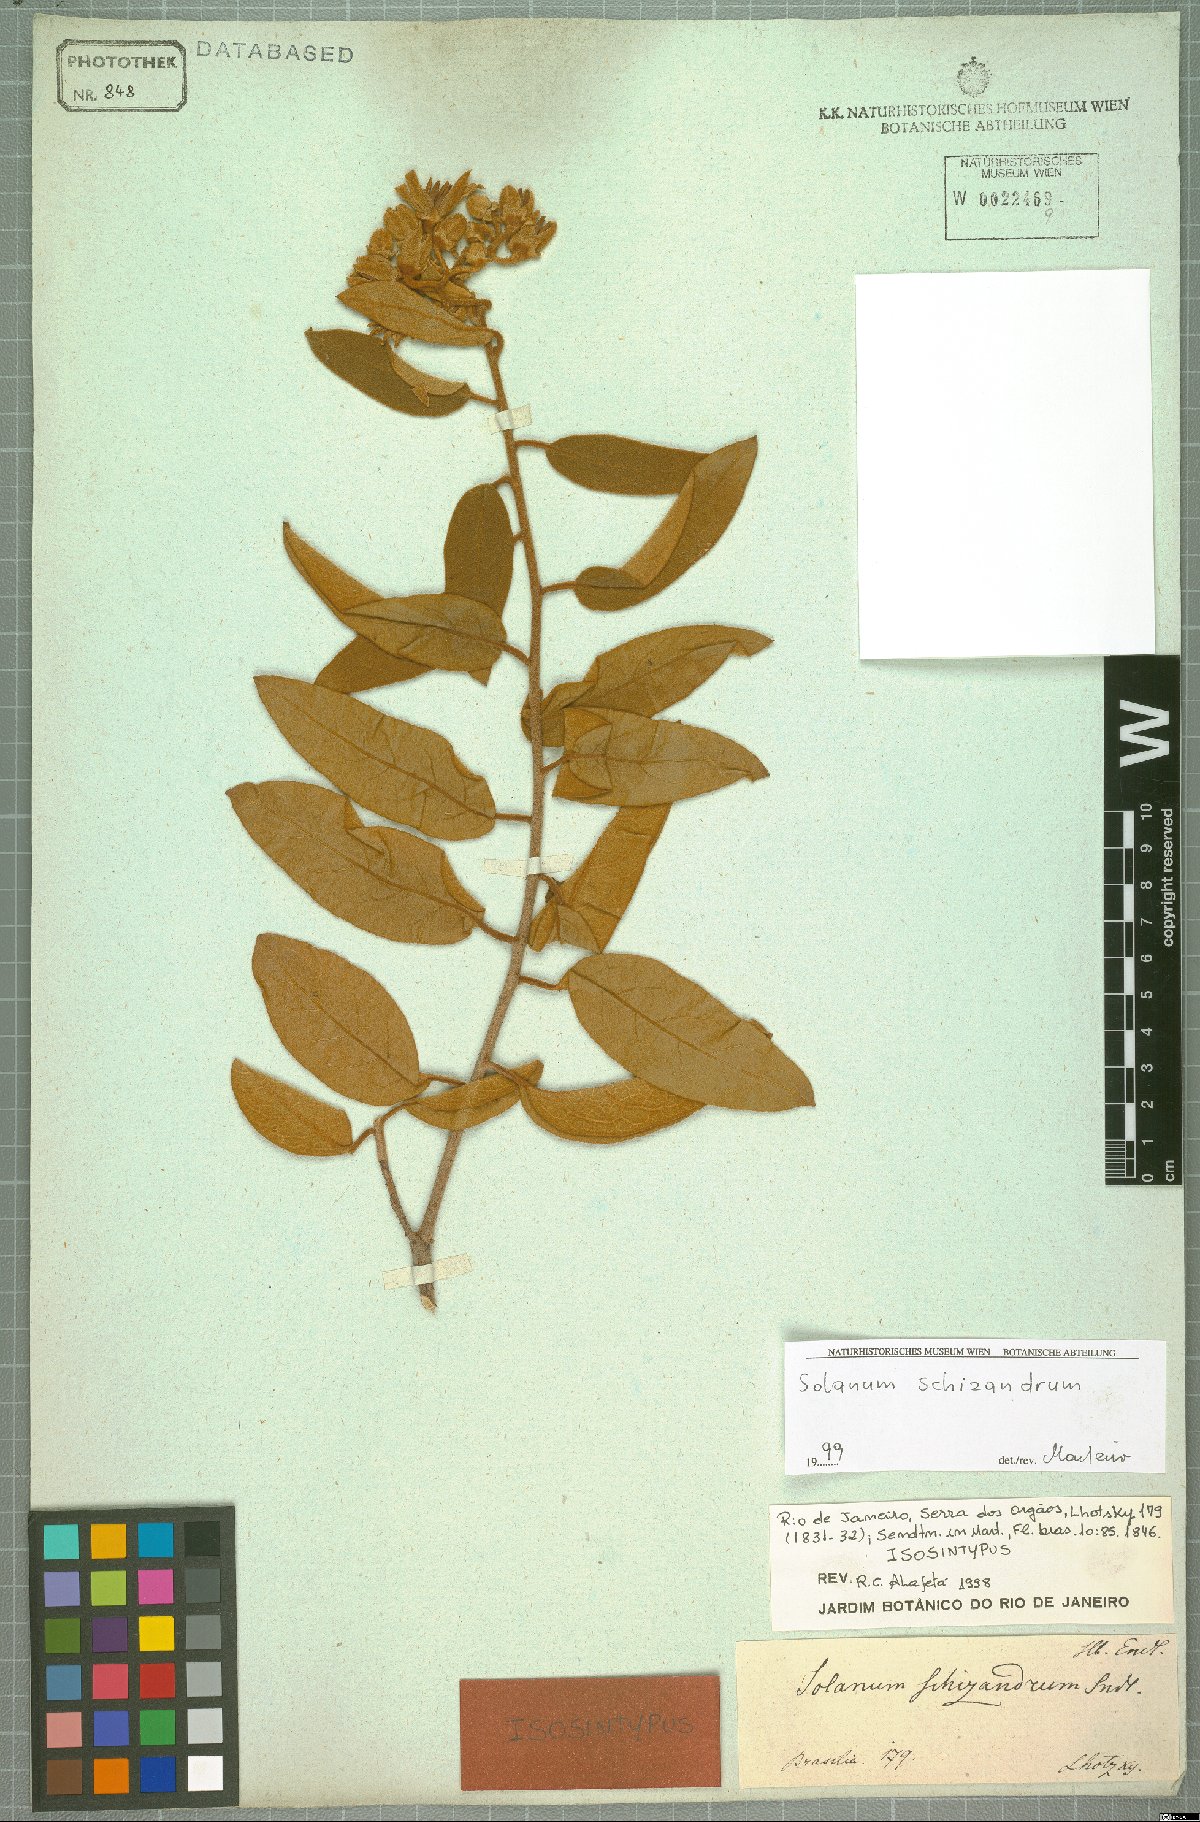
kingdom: Plantae
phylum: Tracheophyta
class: Magnoliopsida
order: Solanales
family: Solanaceae
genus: Solanum
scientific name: Solanum schizandrum
